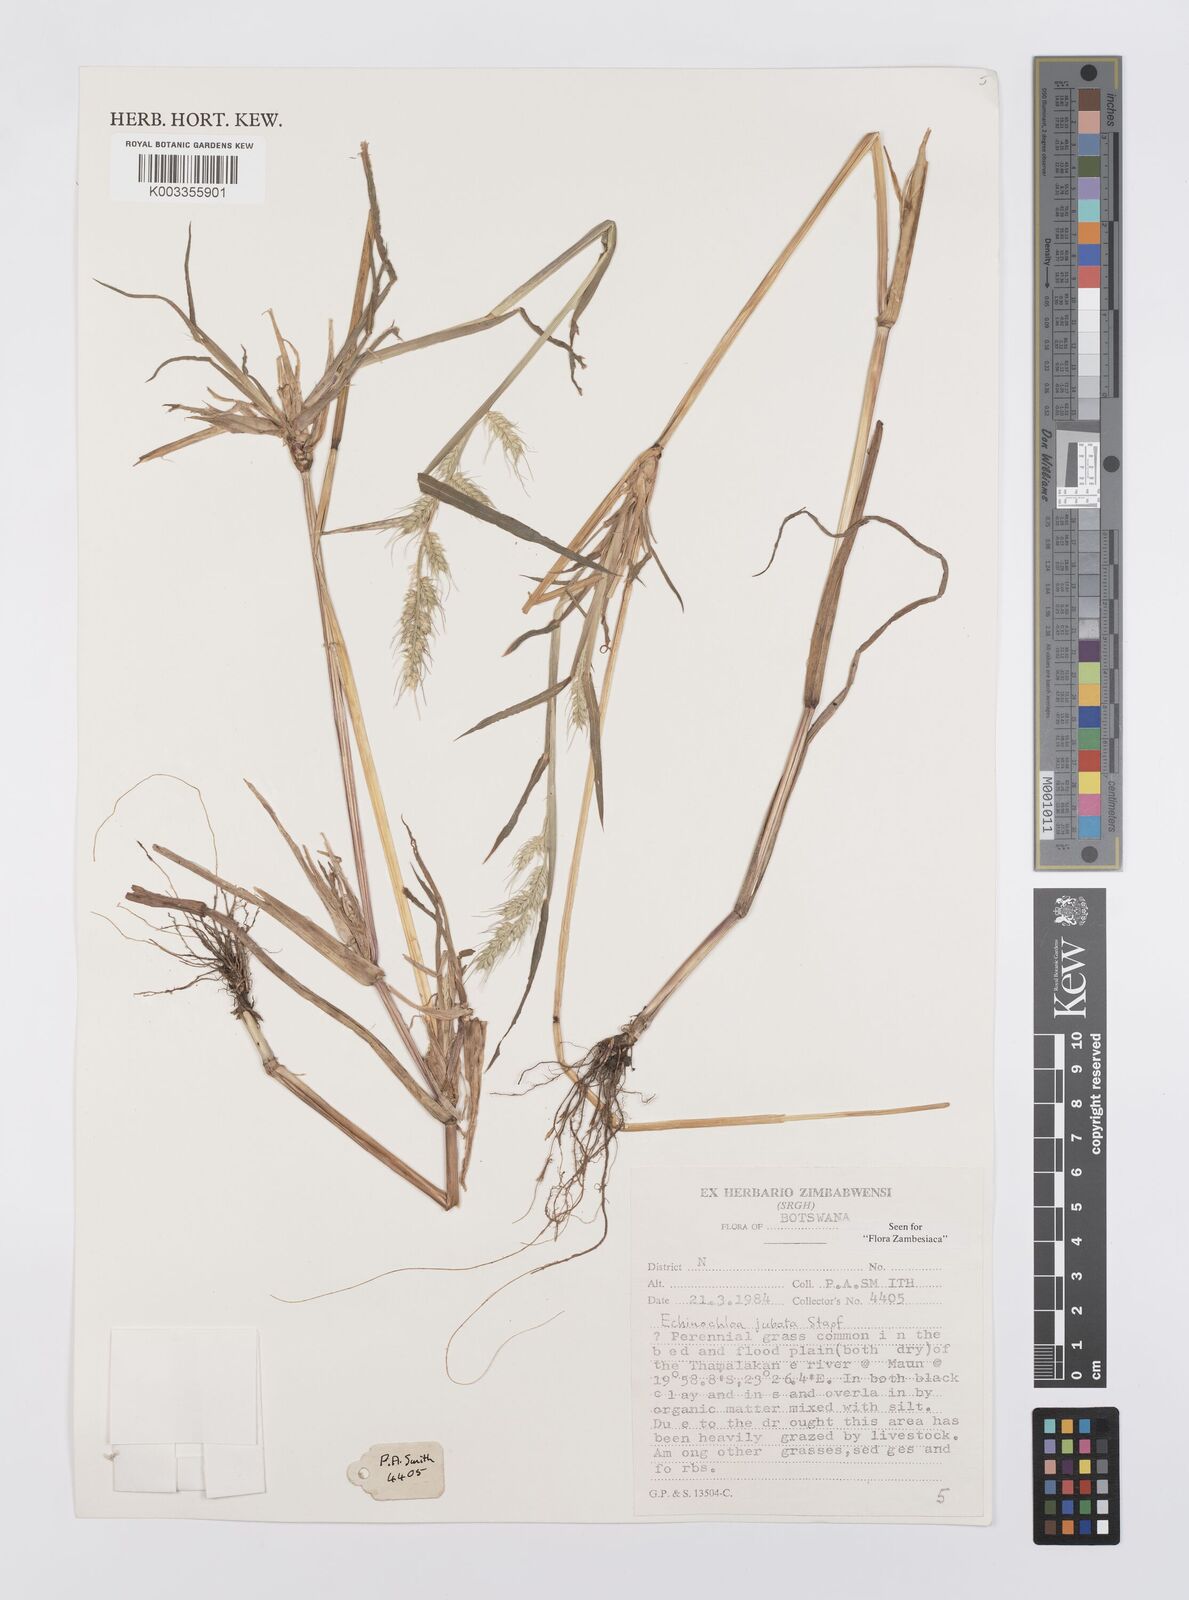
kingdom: Plantae
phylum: Tracheophyta
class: Liliopsida
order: Poales
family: Poaceae
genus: Echinochloa
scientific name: Echinochloa jubata
